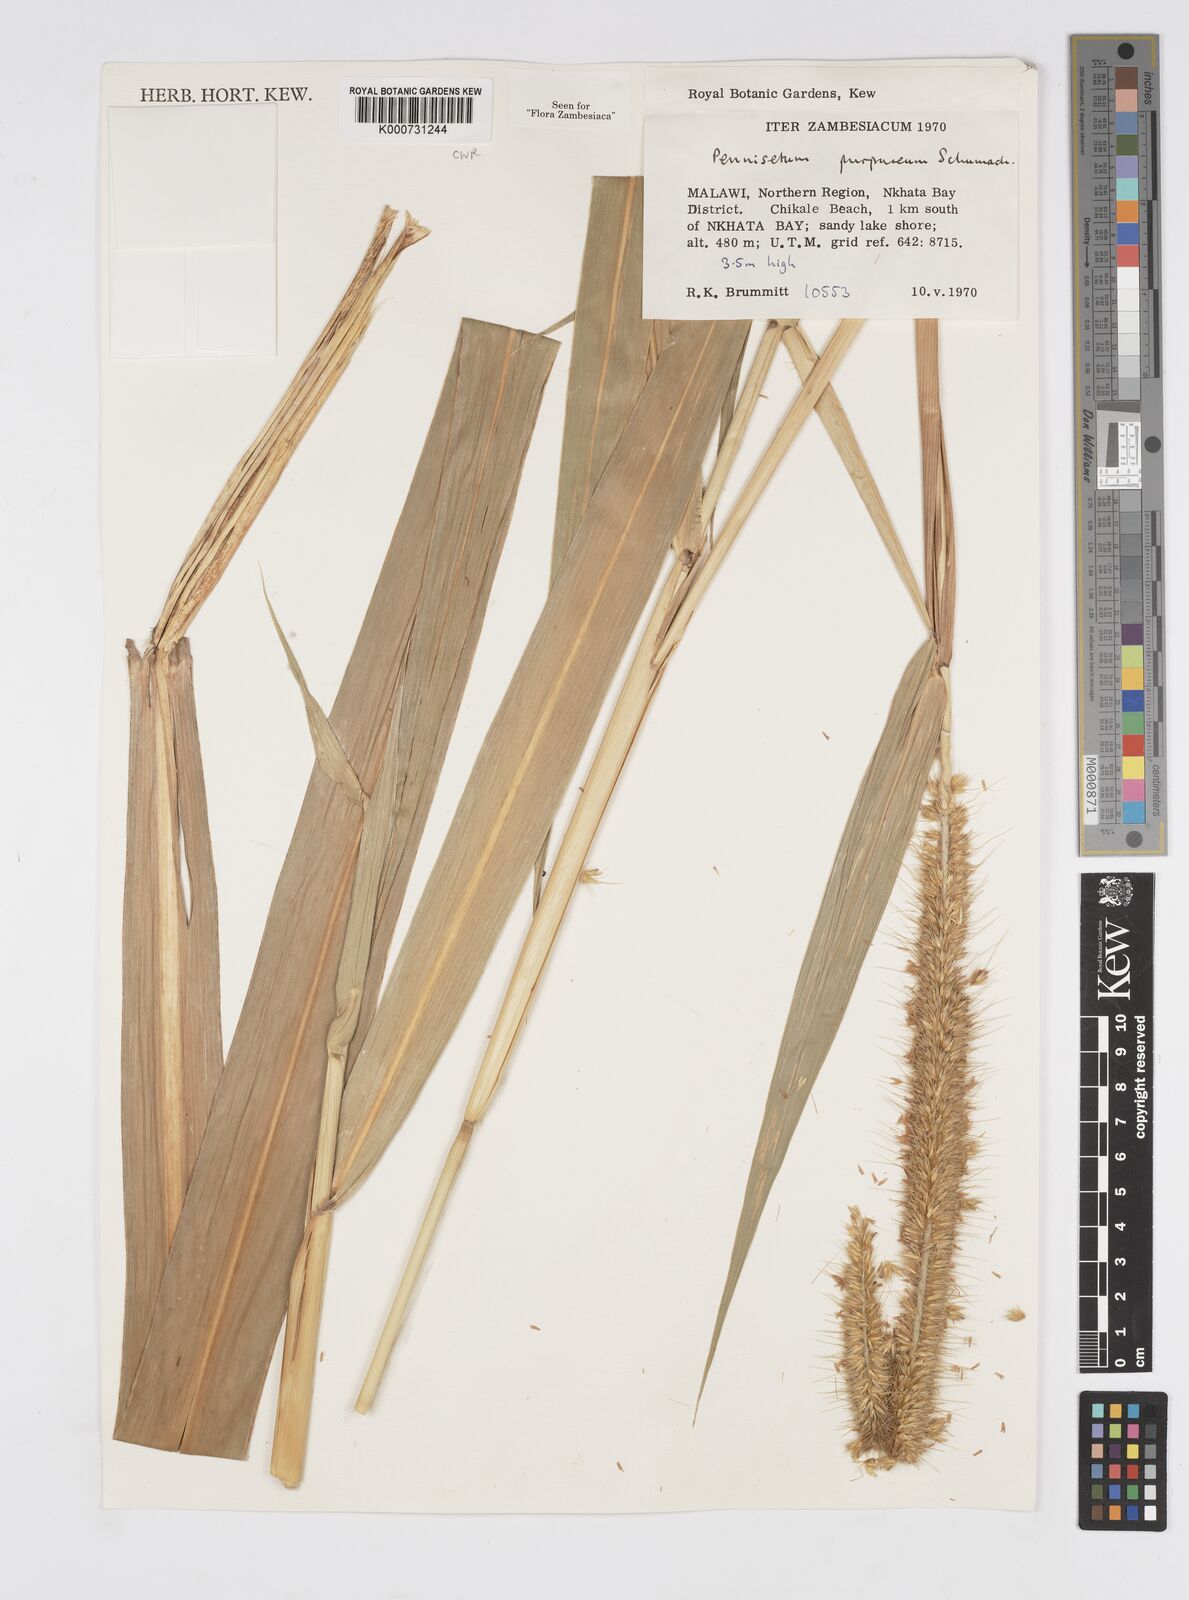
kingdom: Plantae
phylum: Tracheophyta
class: Liliopsida
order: Poales
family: Poaceae
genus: Cenchrus
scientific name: Cenchrus purpureus
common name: Elephant grass
